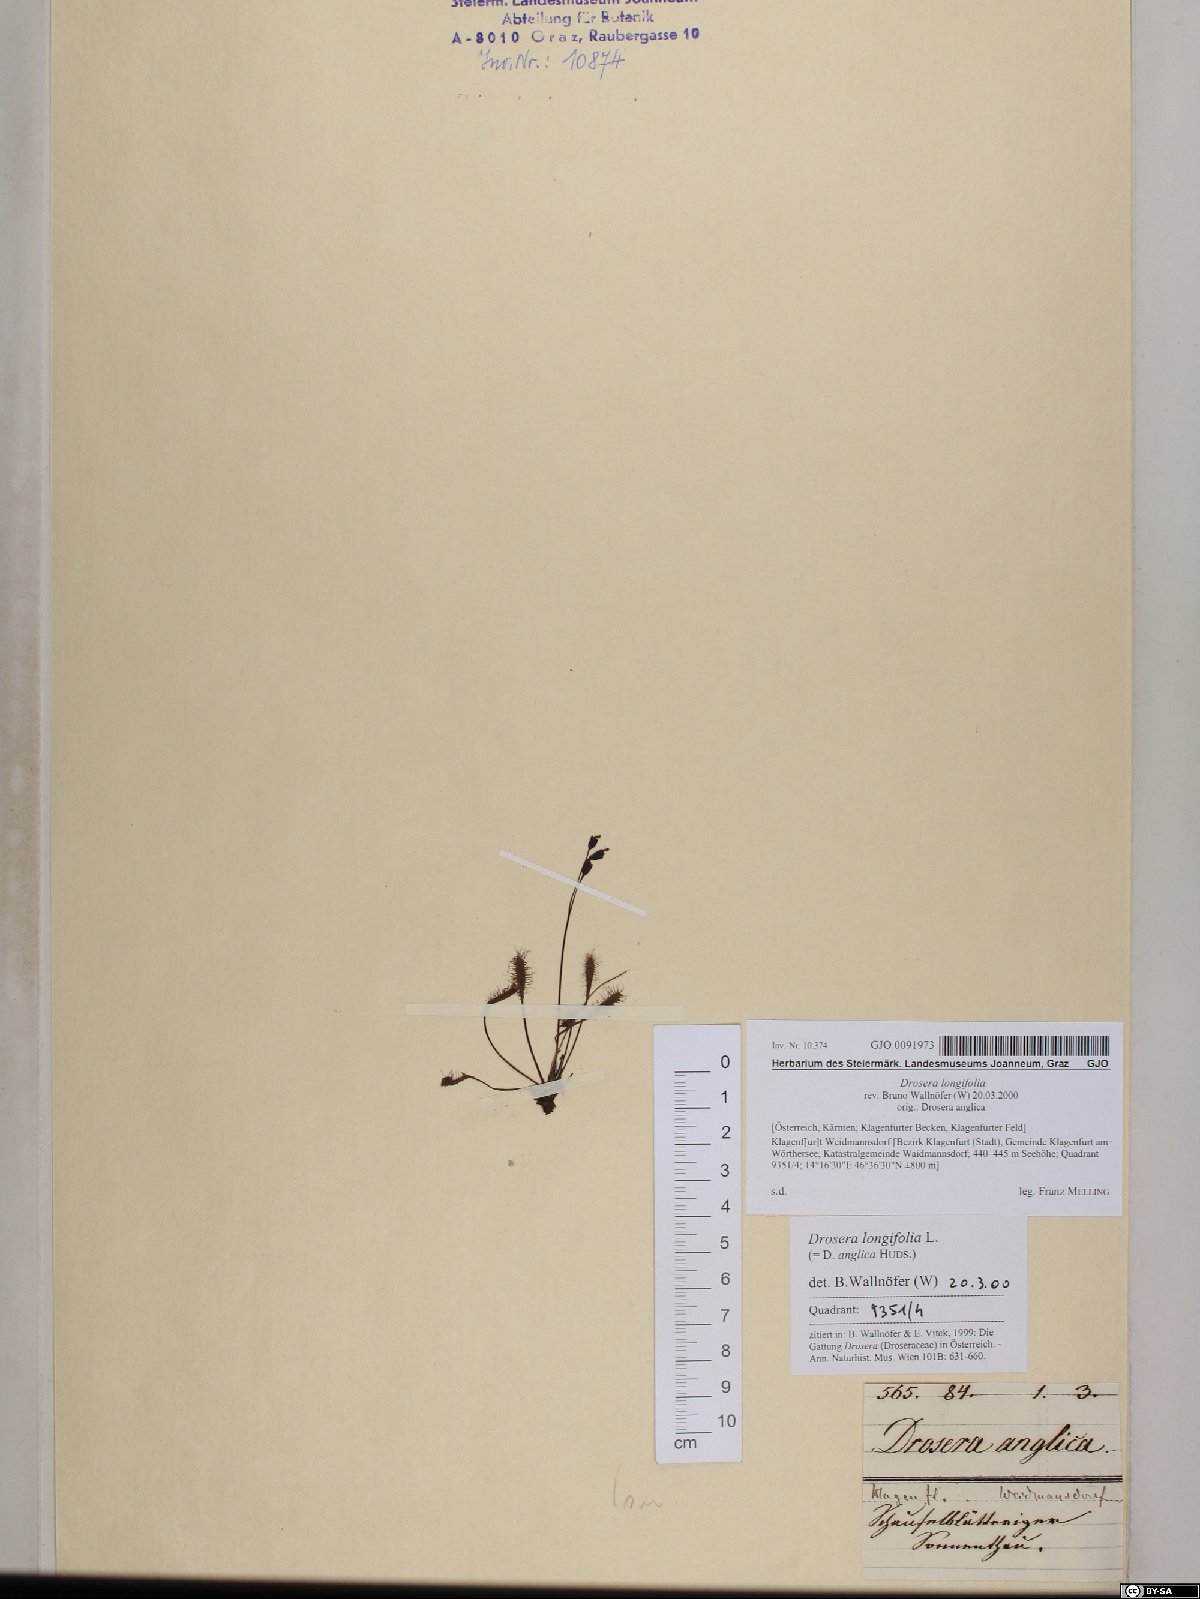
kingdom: Plantae
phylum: Tracheophyta
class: Magnoliopsida
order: Caryophyllales
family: Droseraceae
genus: Drosera
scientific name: Drosera anglica
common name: Great sundew
